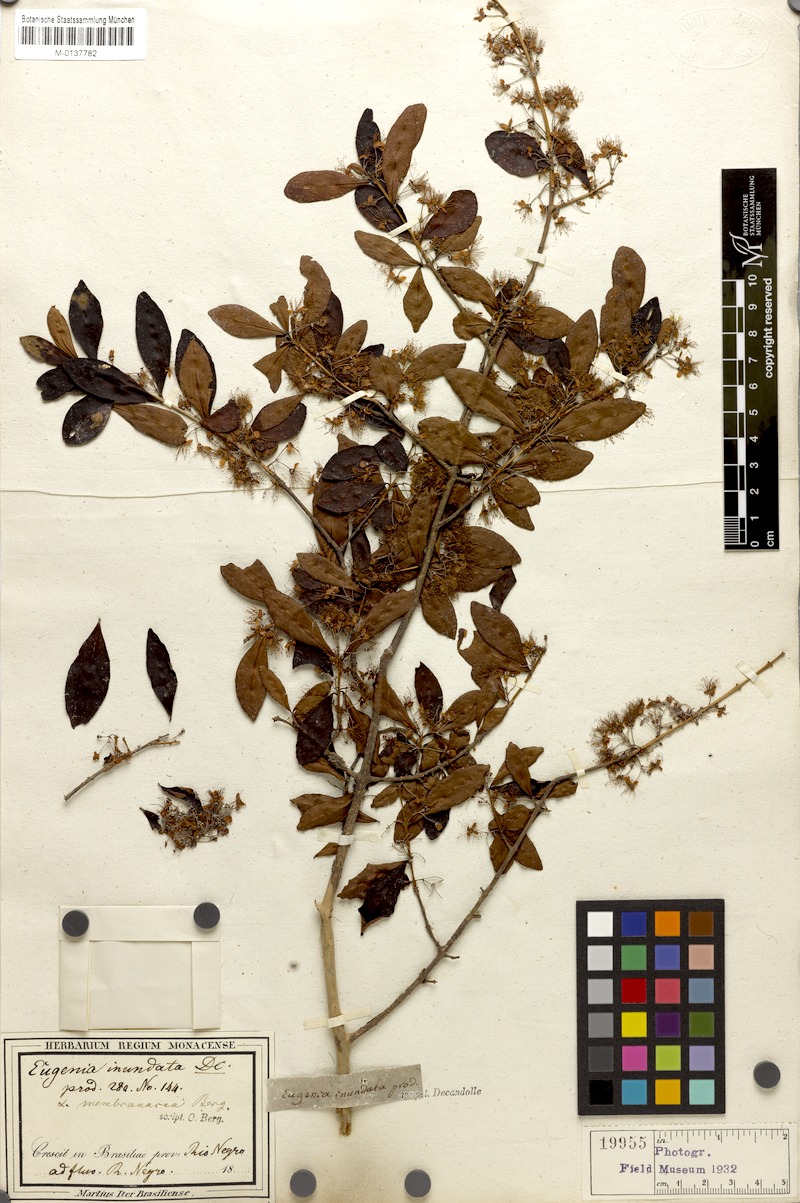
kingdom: Plantae
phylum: Tracheophyta
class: Magnoliopsida
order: Myrtales
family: Myrtaceae
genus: Eugenia
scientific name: Eugenia inundata
